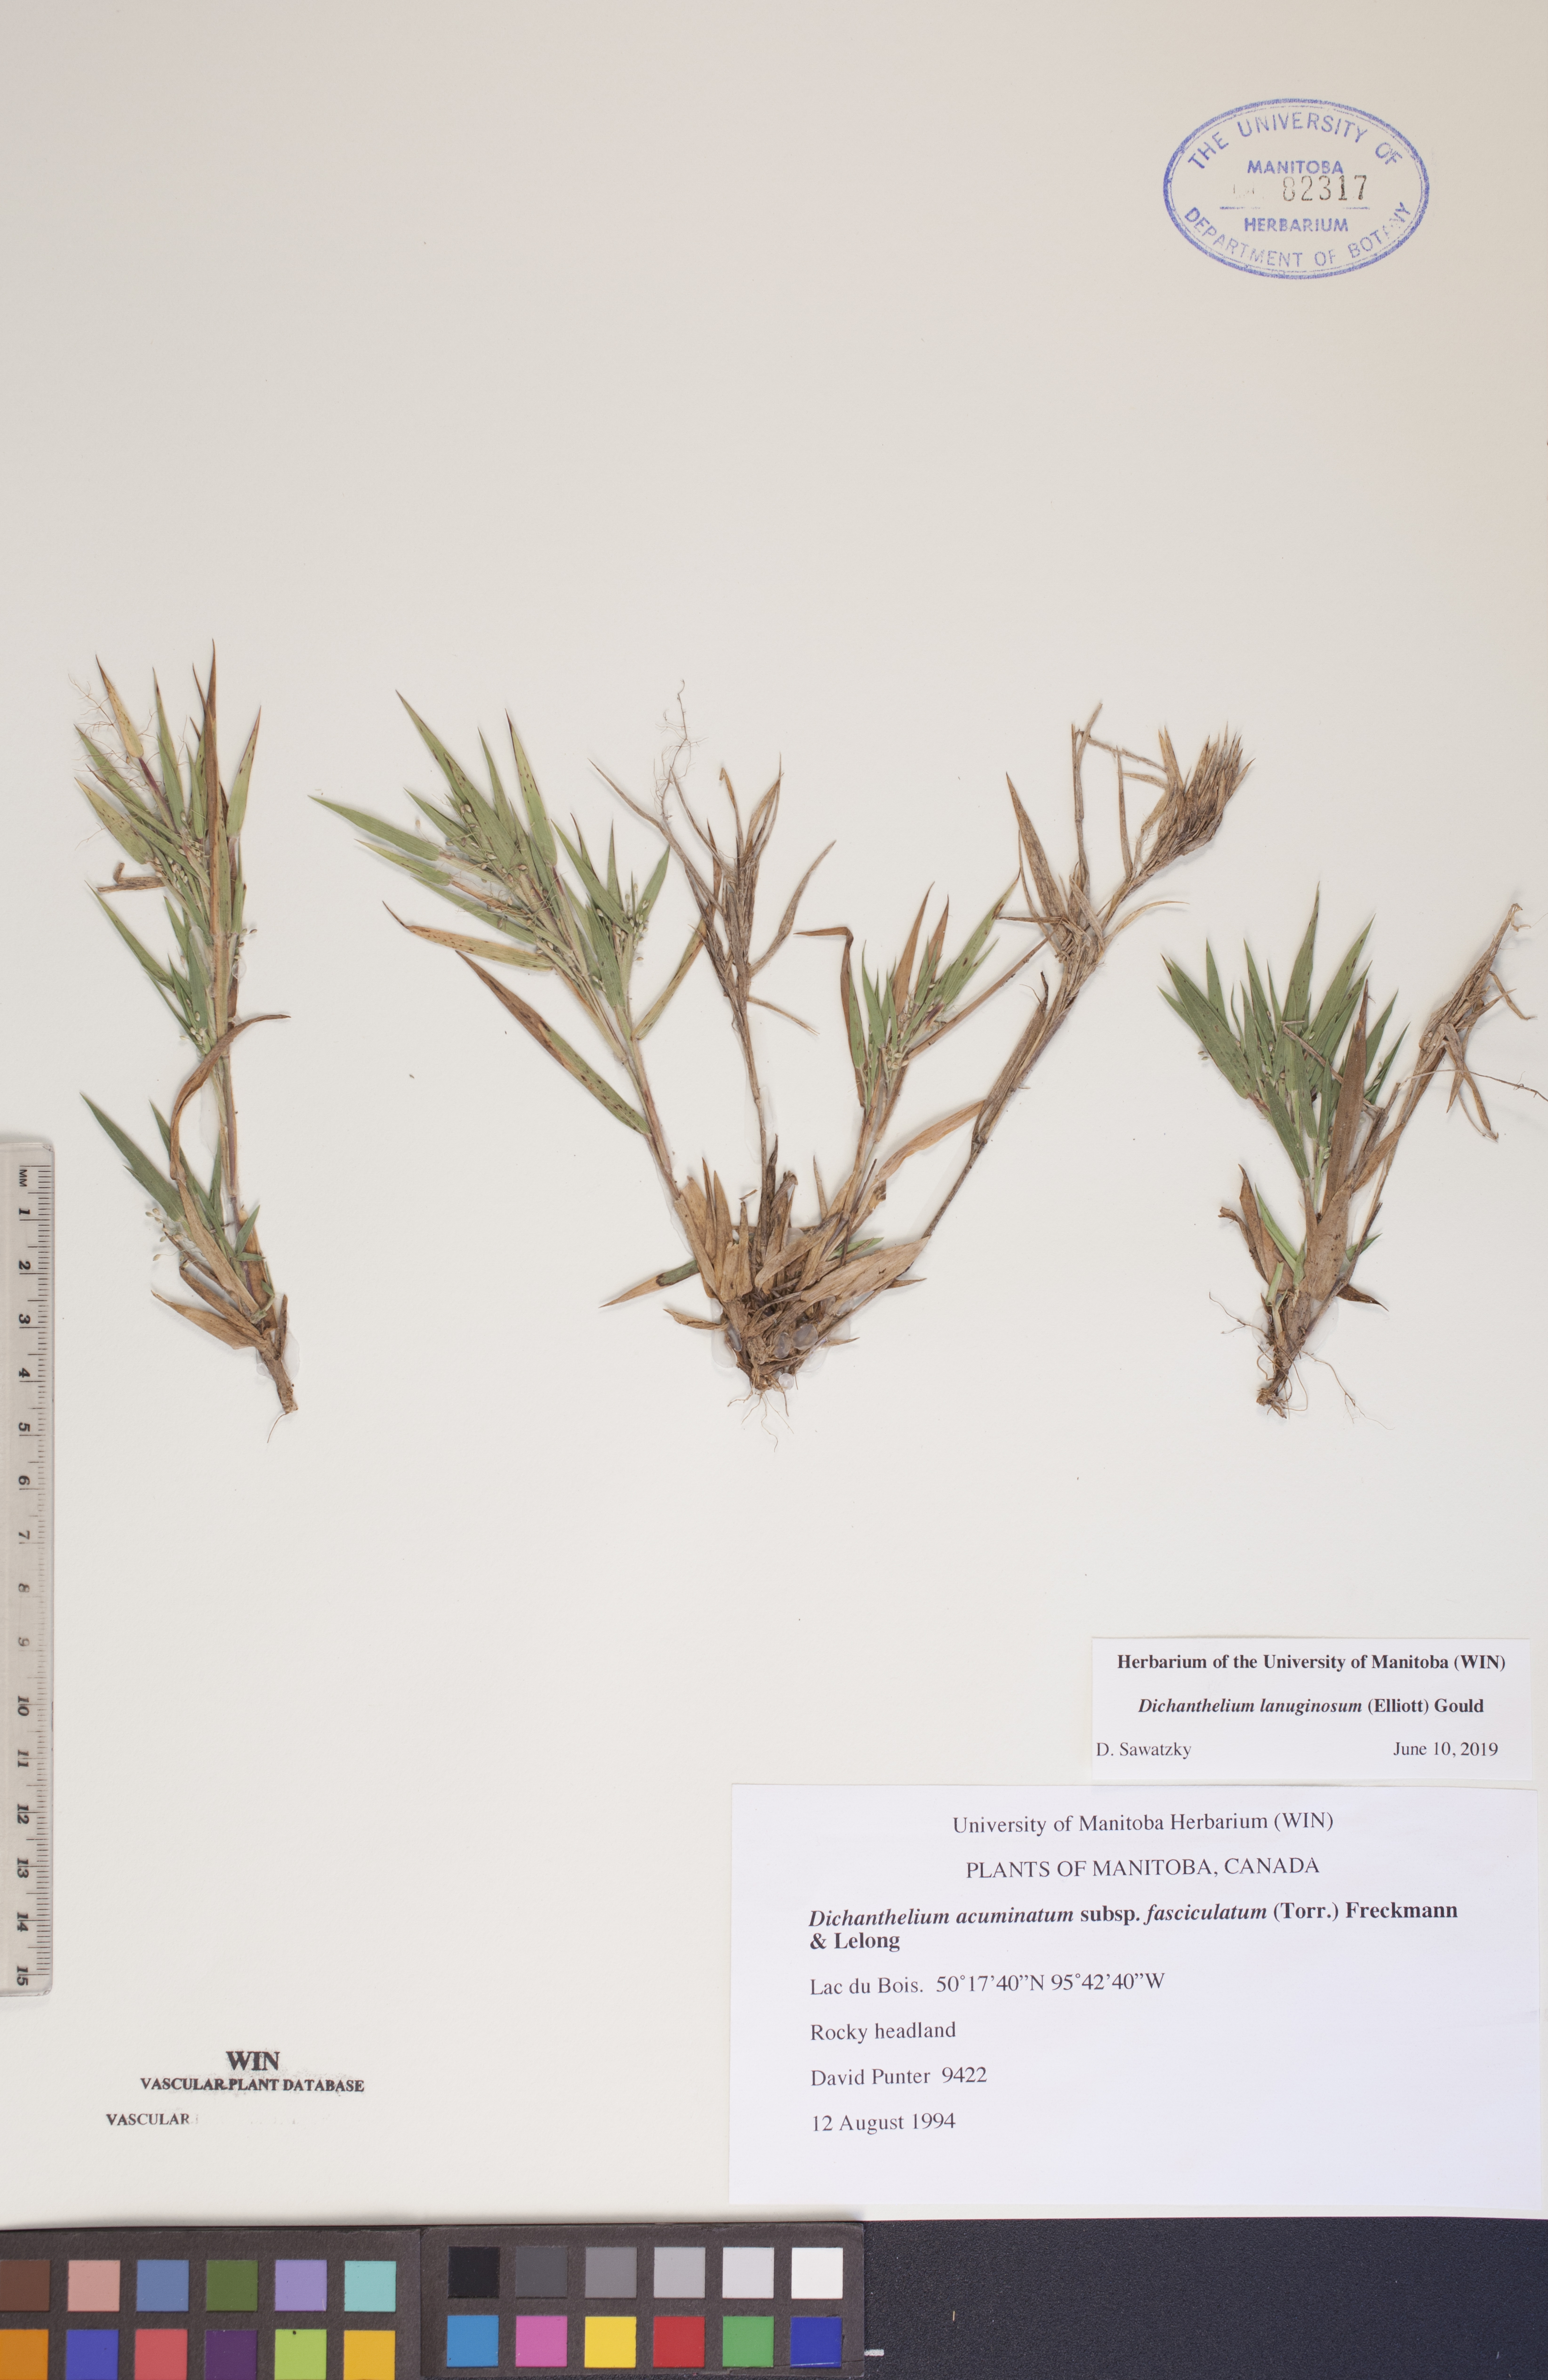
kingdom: Plantae
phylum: Tracheophyta
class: Liliopsida
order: Poales
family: Poaceae
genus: Dichanthelium
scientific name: Dichanthelium lanuginosum
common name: Woolly panicgrass
